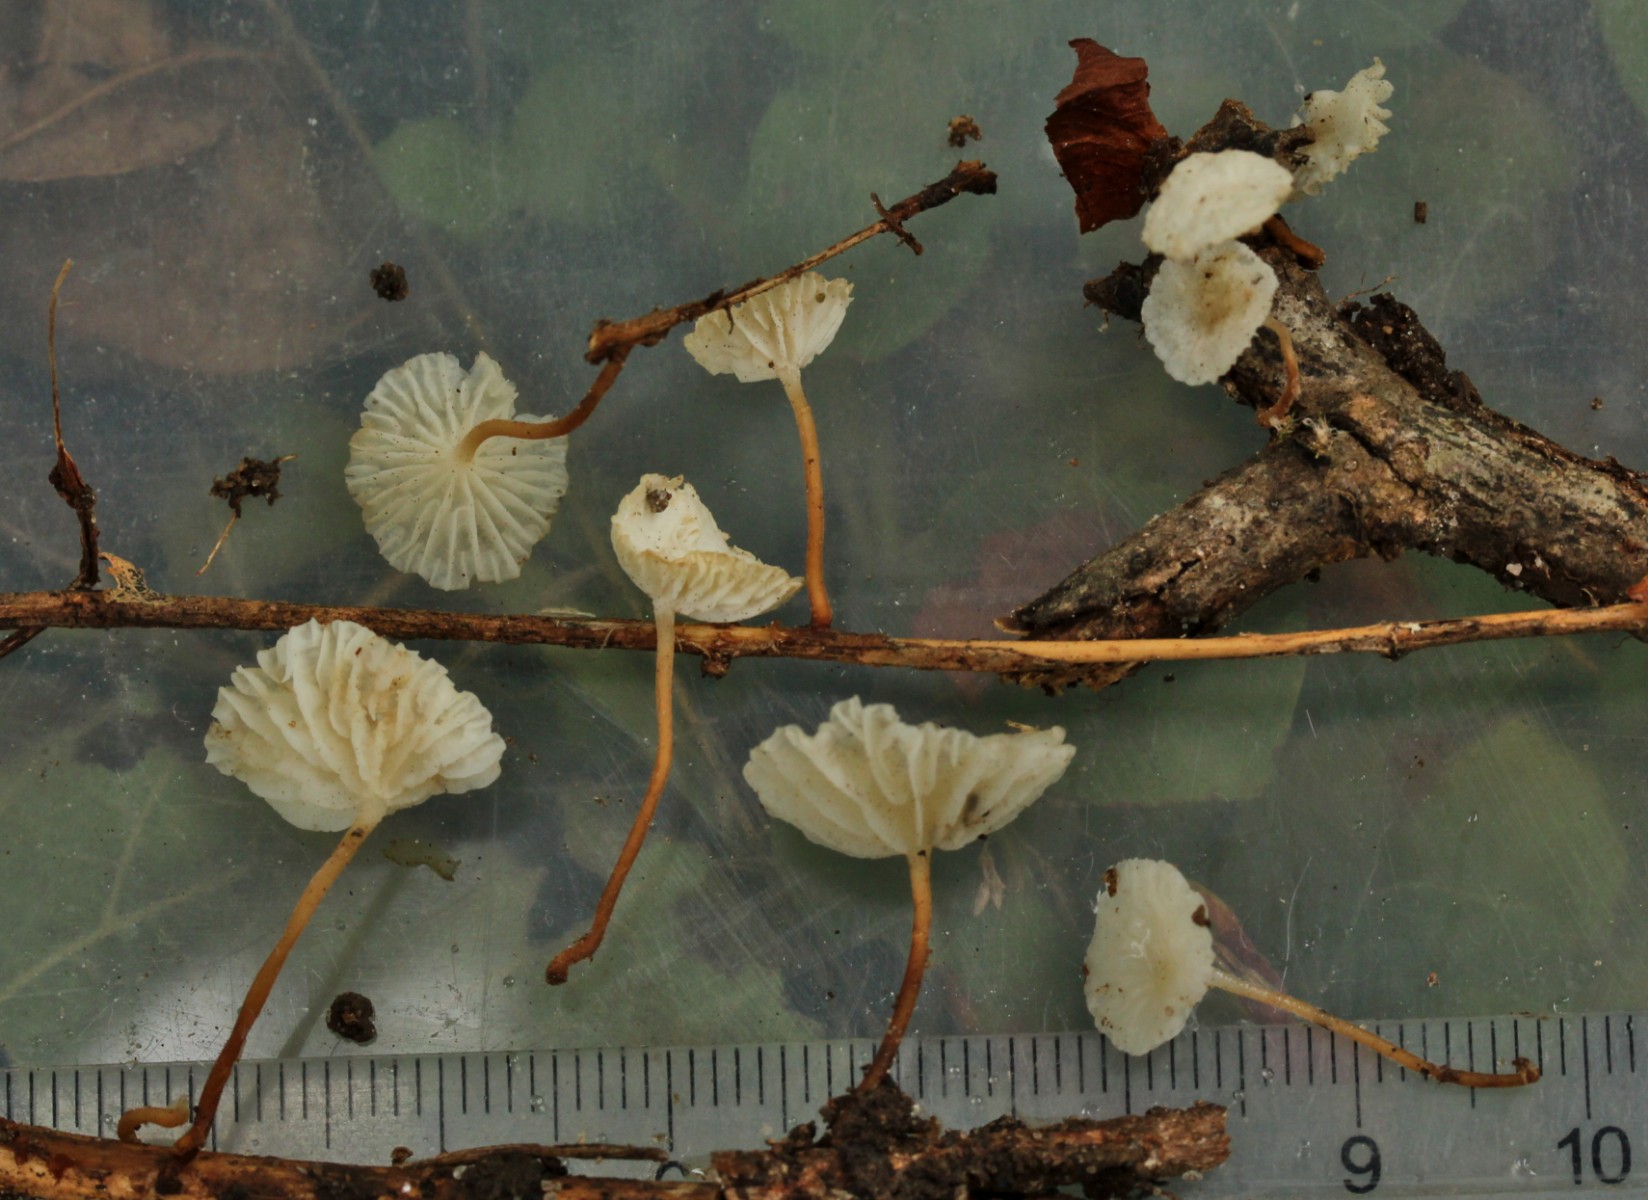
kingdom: Fungi
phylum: Basidiomycota
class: Agaricomycetes
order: Agaricales
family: Omphalotaceae
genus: Collybiopsis
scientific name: Collybiopsis vaillantii
